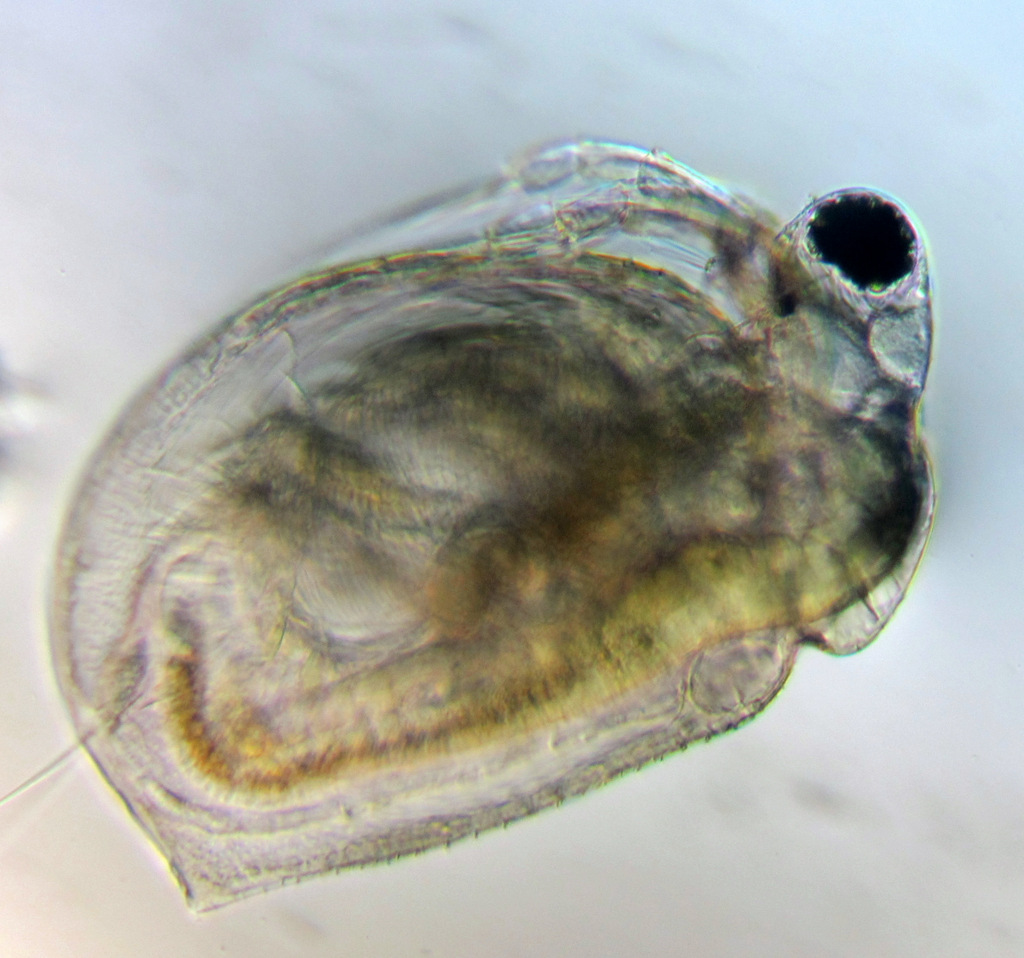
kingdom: Animalia
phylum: Arthropoda
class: Branchiopoda
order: Diplostraca
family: Daphniidae
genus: Ceriodaphnia
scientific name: Ceriodaphnia quadrangula
